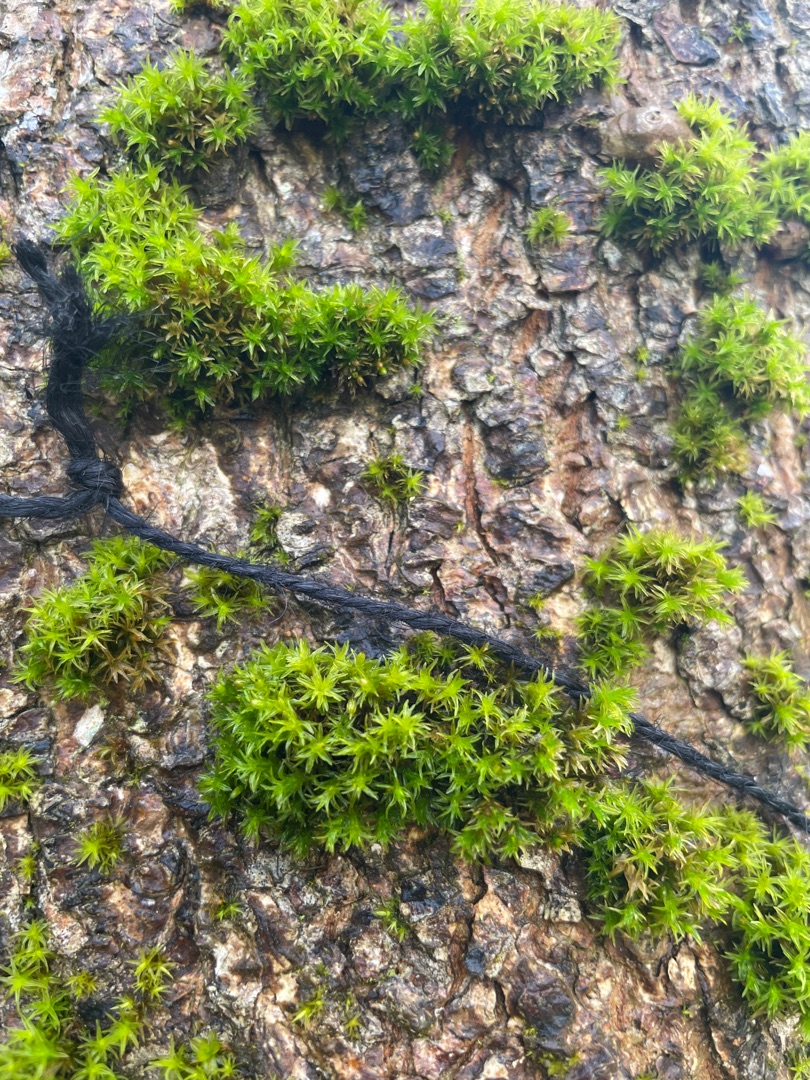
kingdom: Plantae
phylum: Bryophyta
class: Bryopsida
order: Orthotrichales
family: Orthotrichaceae
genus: Lewinskya
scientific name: Lewinskya affinis
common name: Almindelig furehætte
